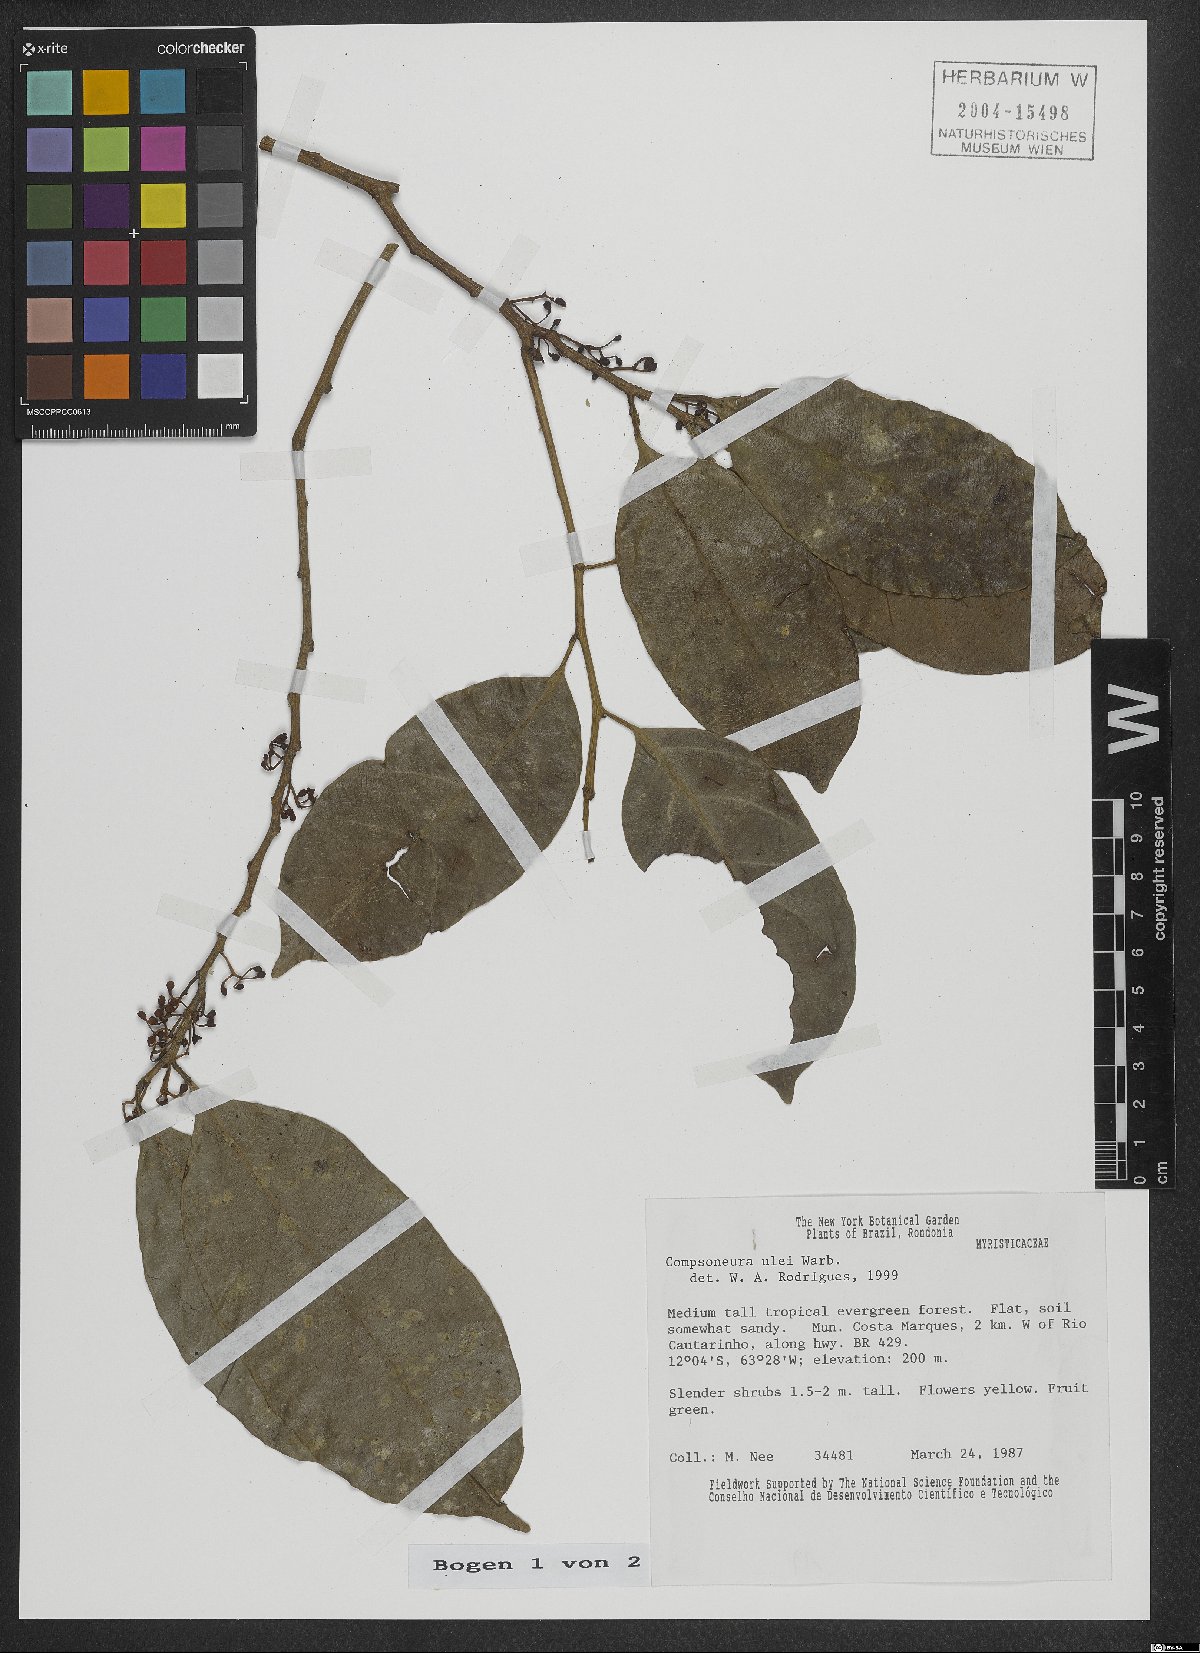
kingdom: Plantae
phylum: Tracheophyta
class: Magnoliopsida
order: Magnoliales
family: Myristicaceae
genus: Compsoneura
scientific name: Compsoneura ulei
